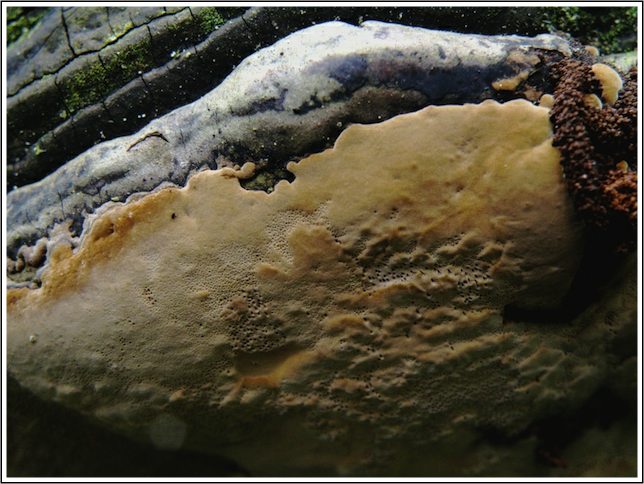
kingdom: Fungi
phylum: Basidiomycota
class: Agaricomycetes
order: Hymenochaetales
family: Hymenochaetaceae
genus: Phellinus
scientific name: Phellinus igniarius
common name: almindelig ildporesvamp
